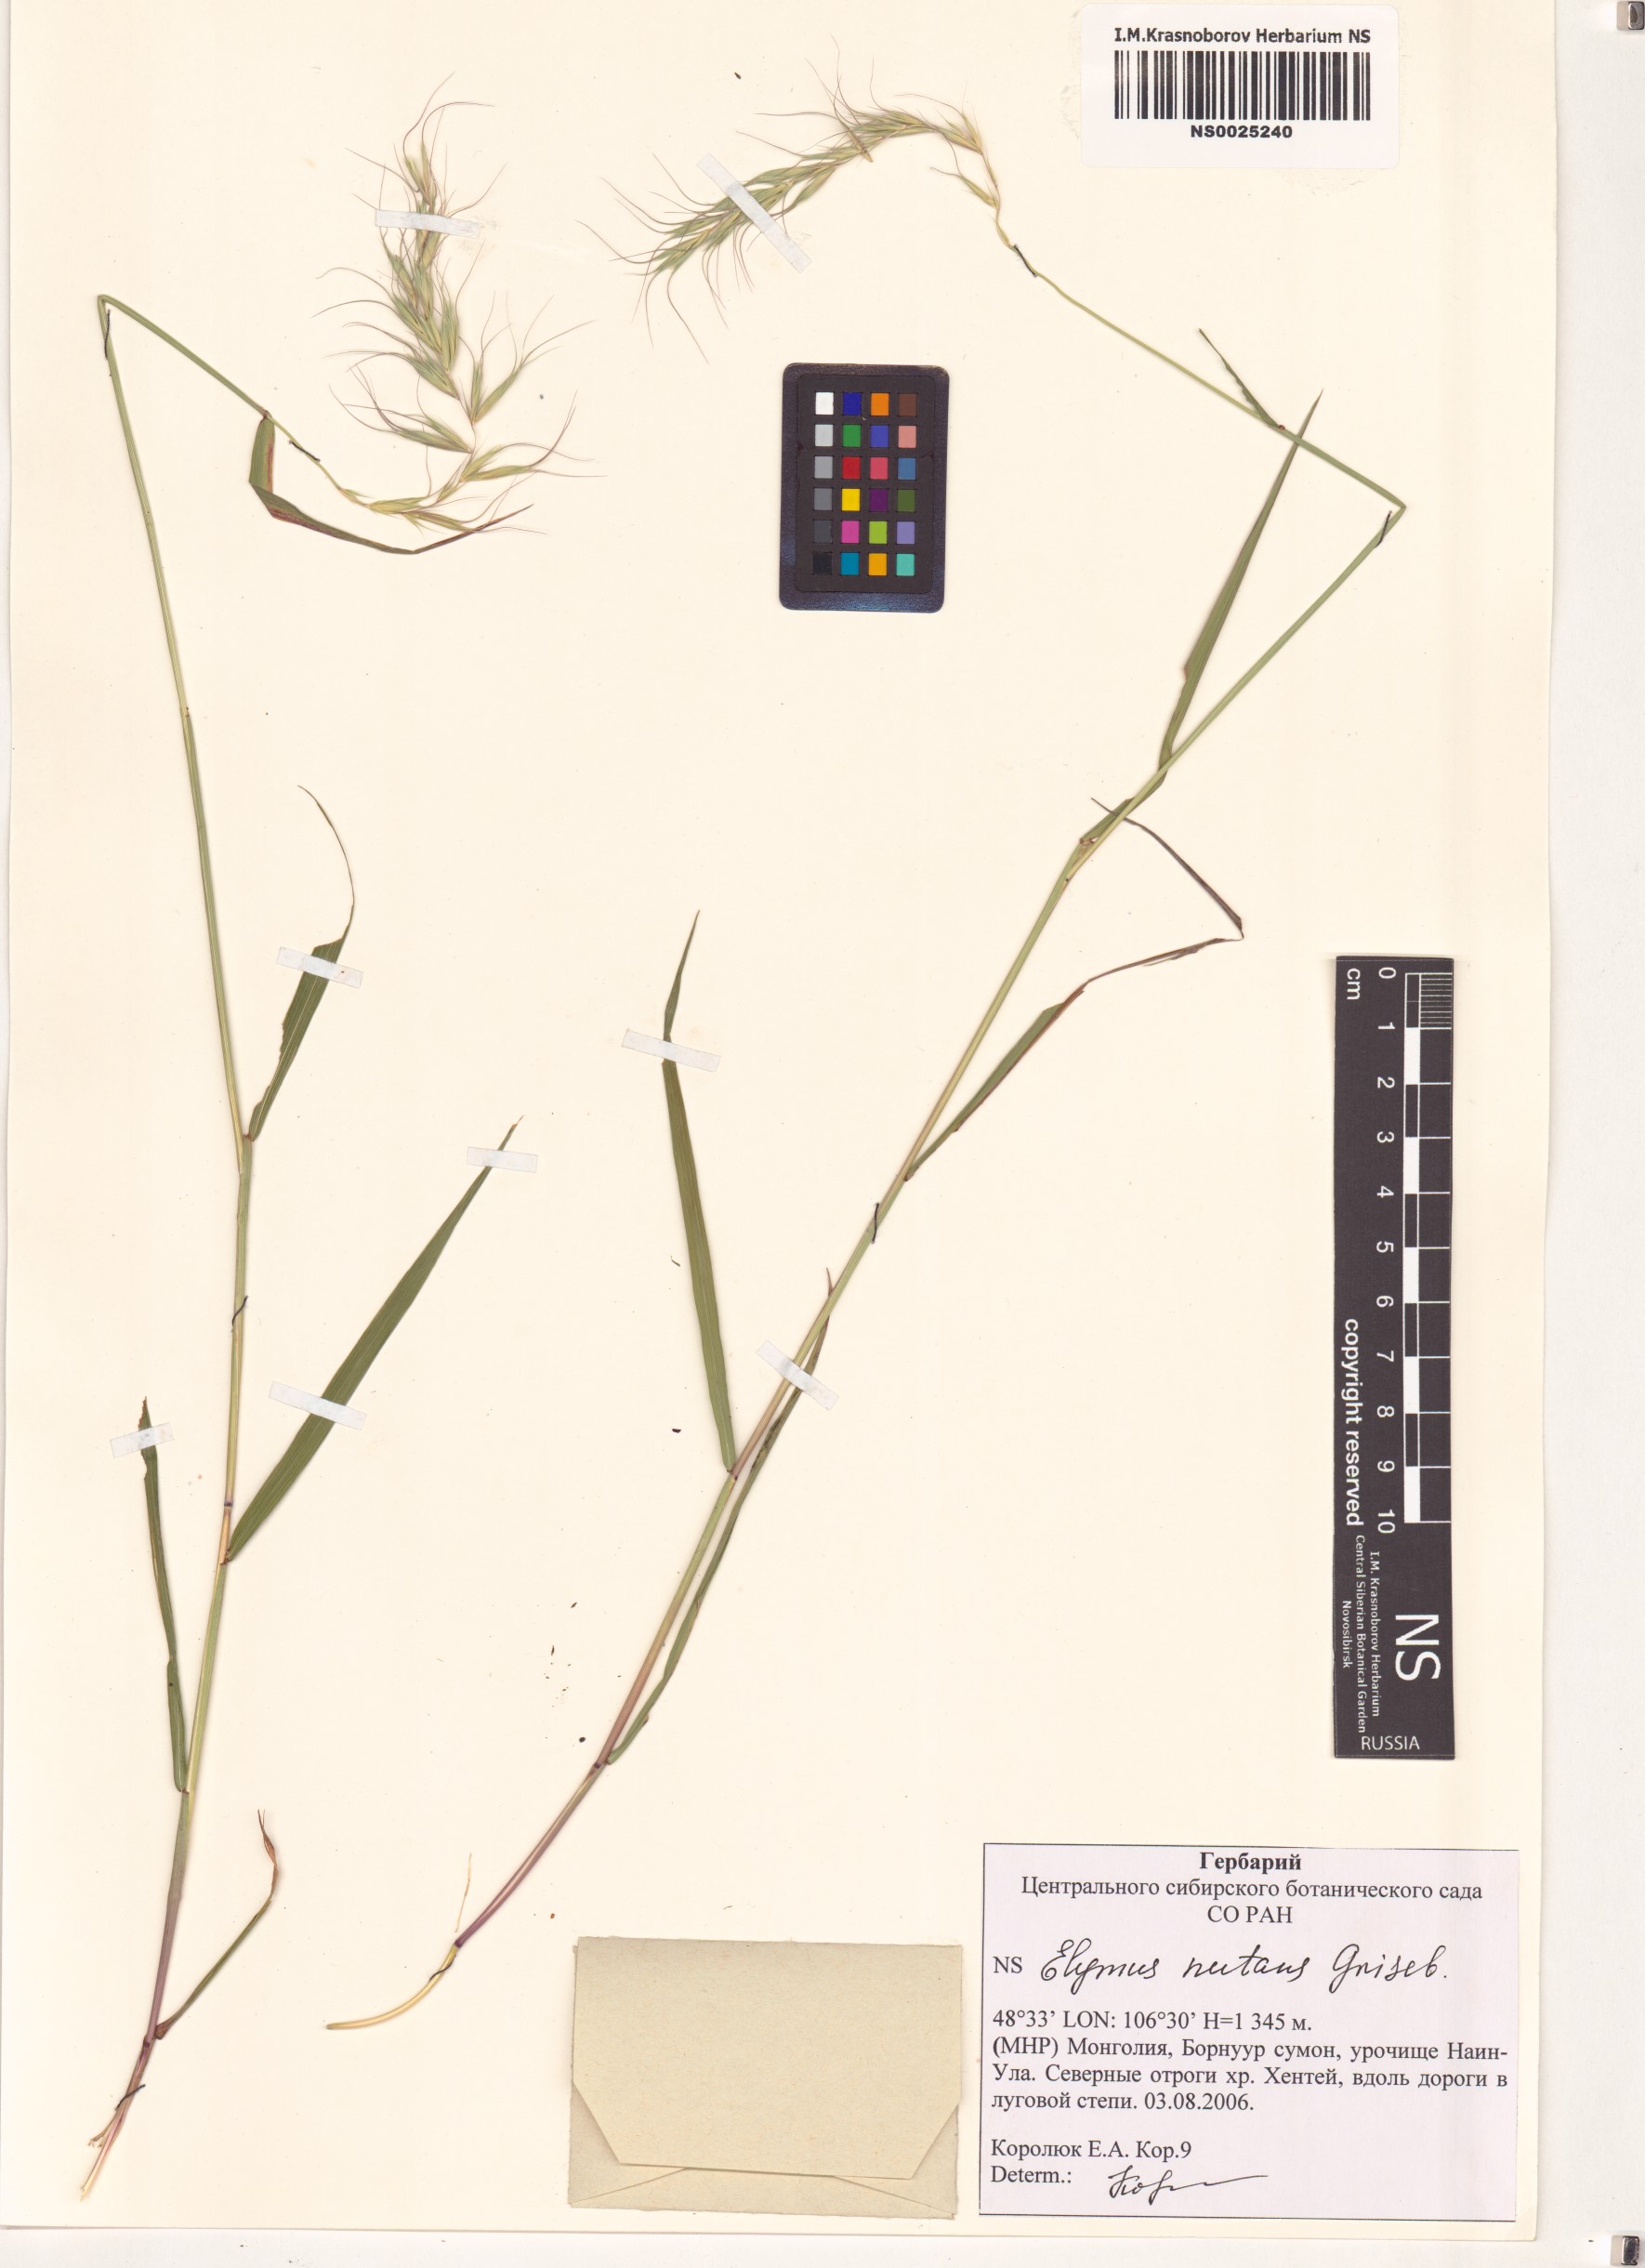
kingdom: Plantae
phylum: Tracheophyta
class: Liliopsida
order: Poales
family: Poaceae
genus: Elymus
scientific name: Elymus nutans
